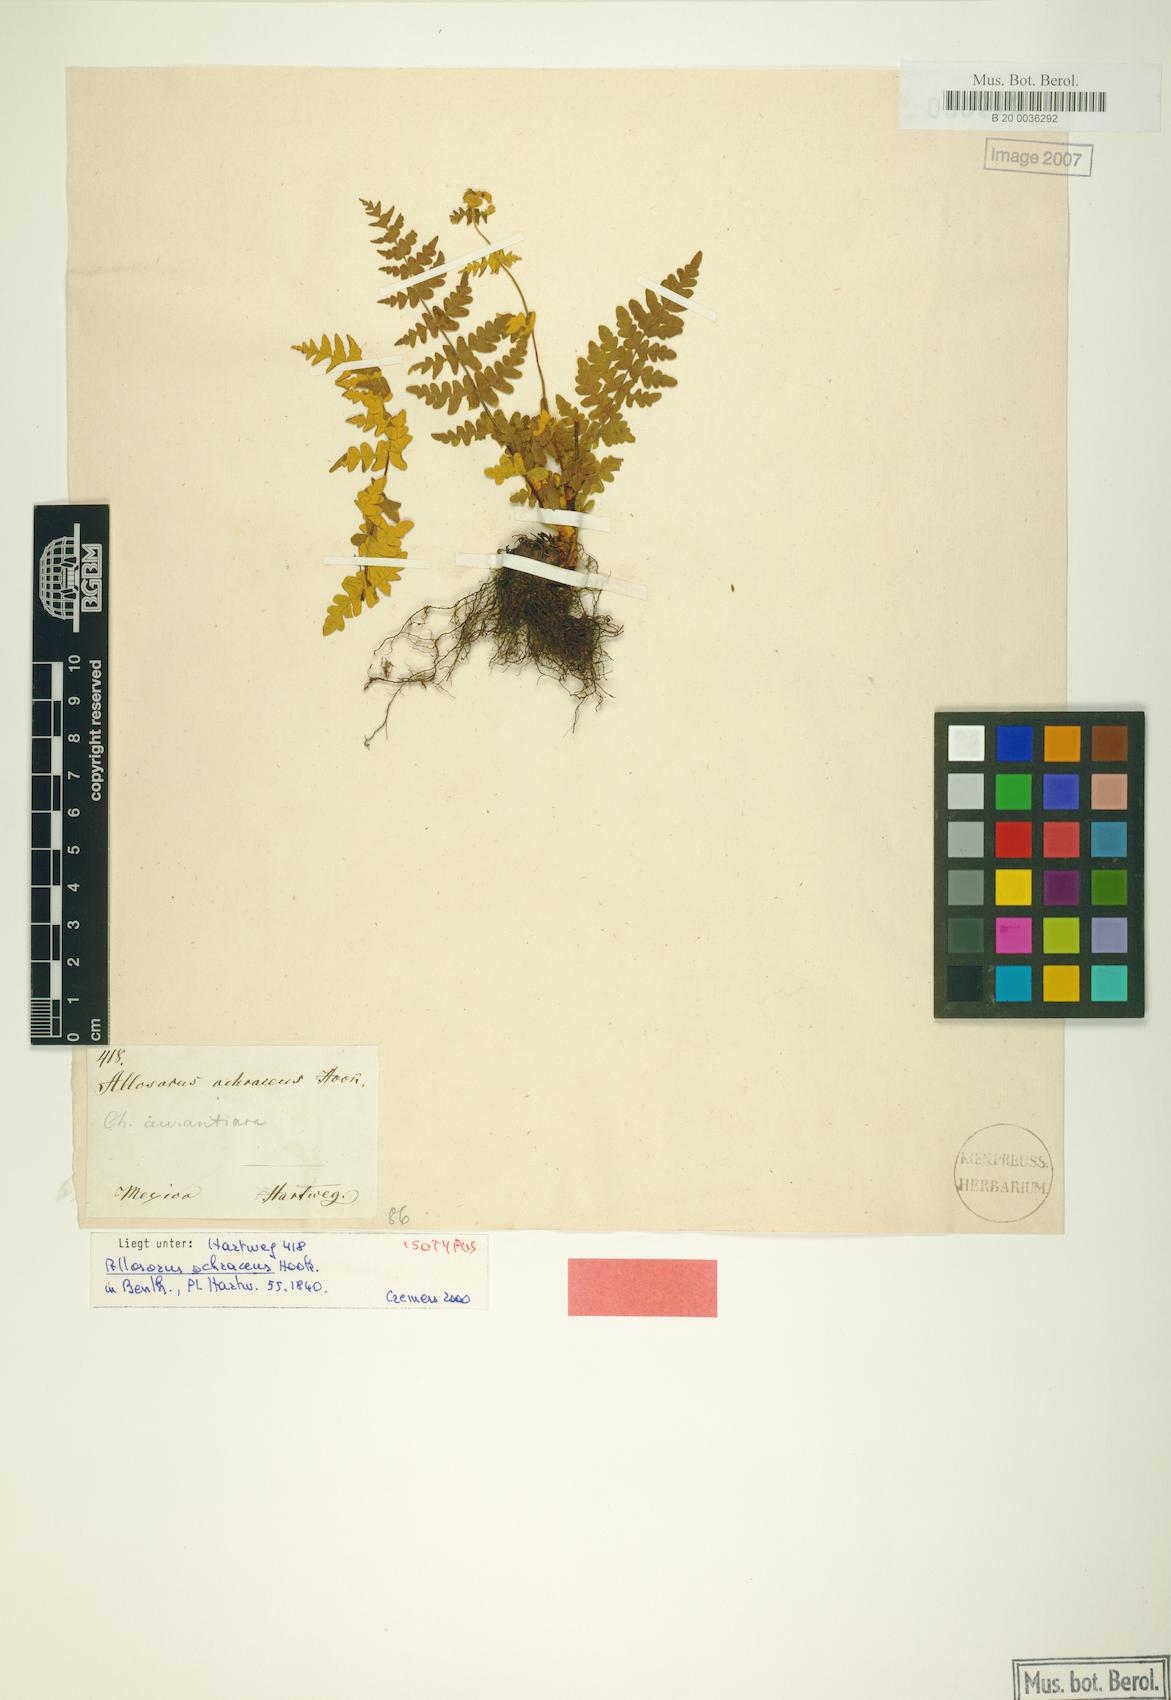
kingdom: Plantae
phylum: Tracheophyta
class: Polypodiopsida
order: Polypodiales
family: Pteridaceae
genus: Notholaena
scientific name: Notholaena ochracea
